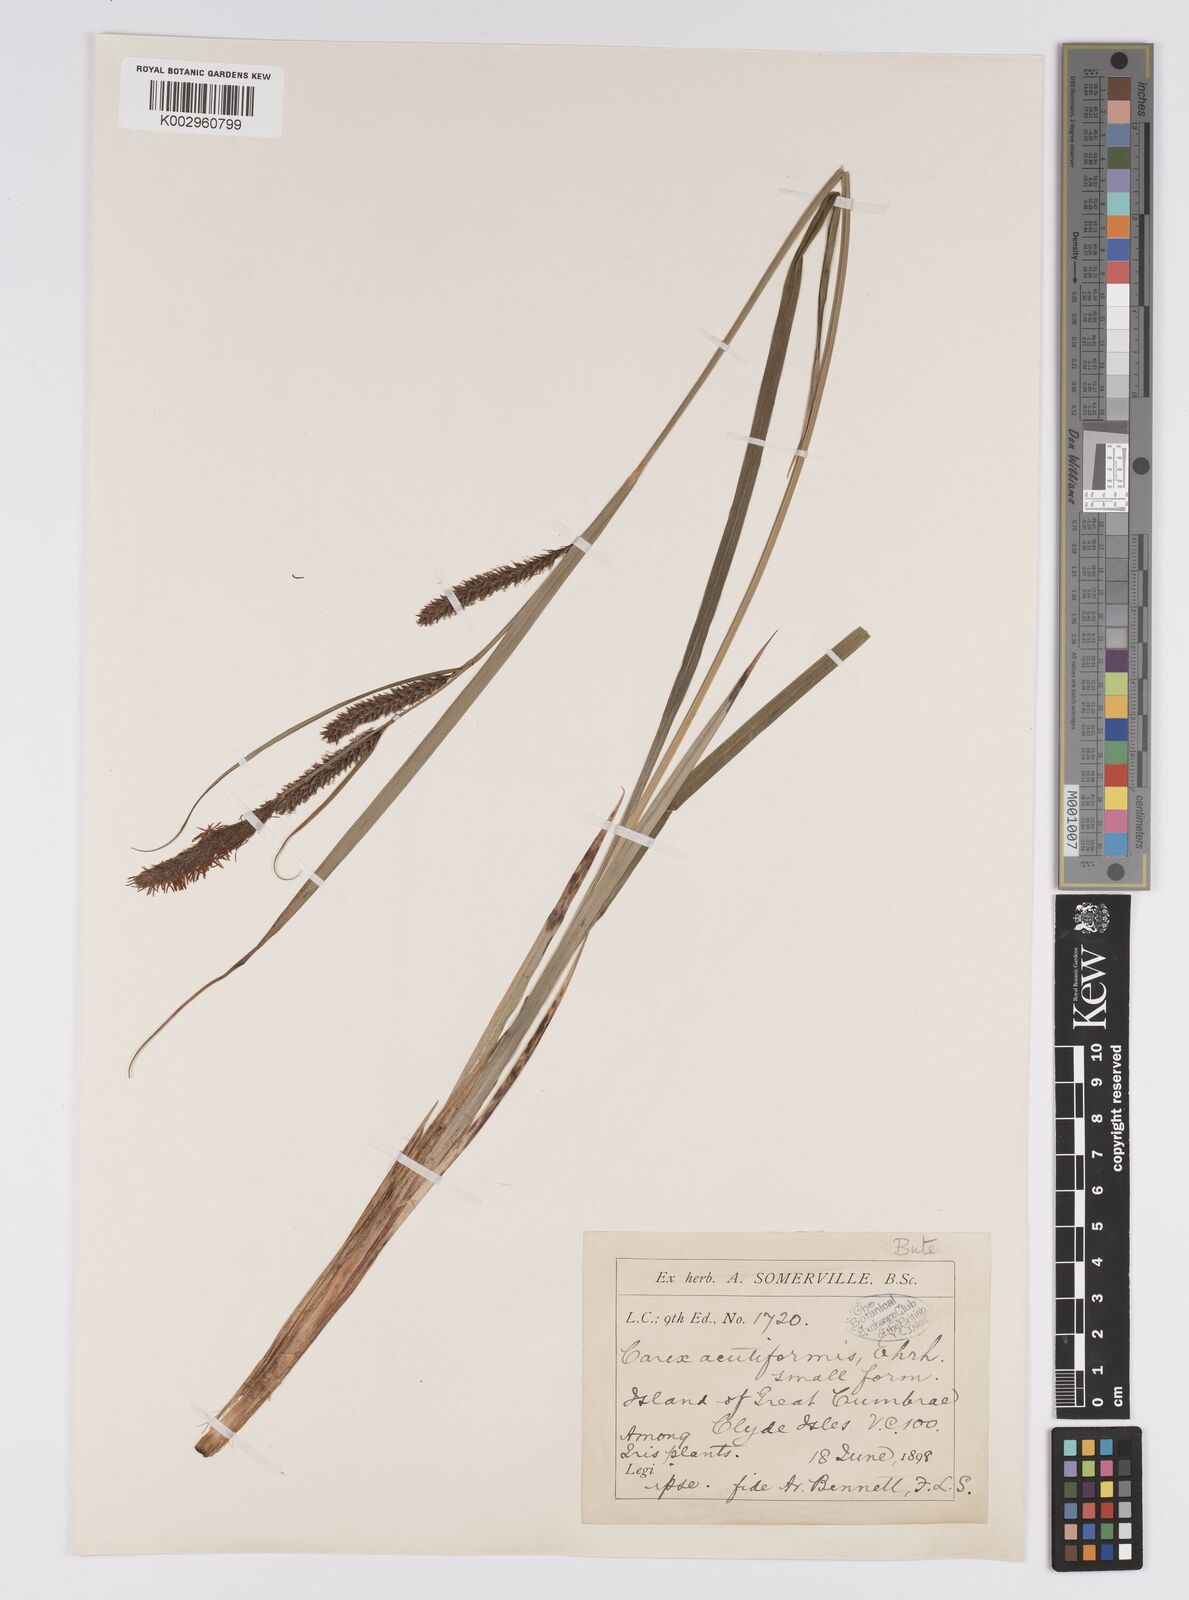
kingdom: Plantae
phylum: Tracheophyta
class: Liliopsida
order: Poales
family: Cyperaceae
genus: Carex
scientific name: Carex acutiformis
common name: Lesser pond-sedge
